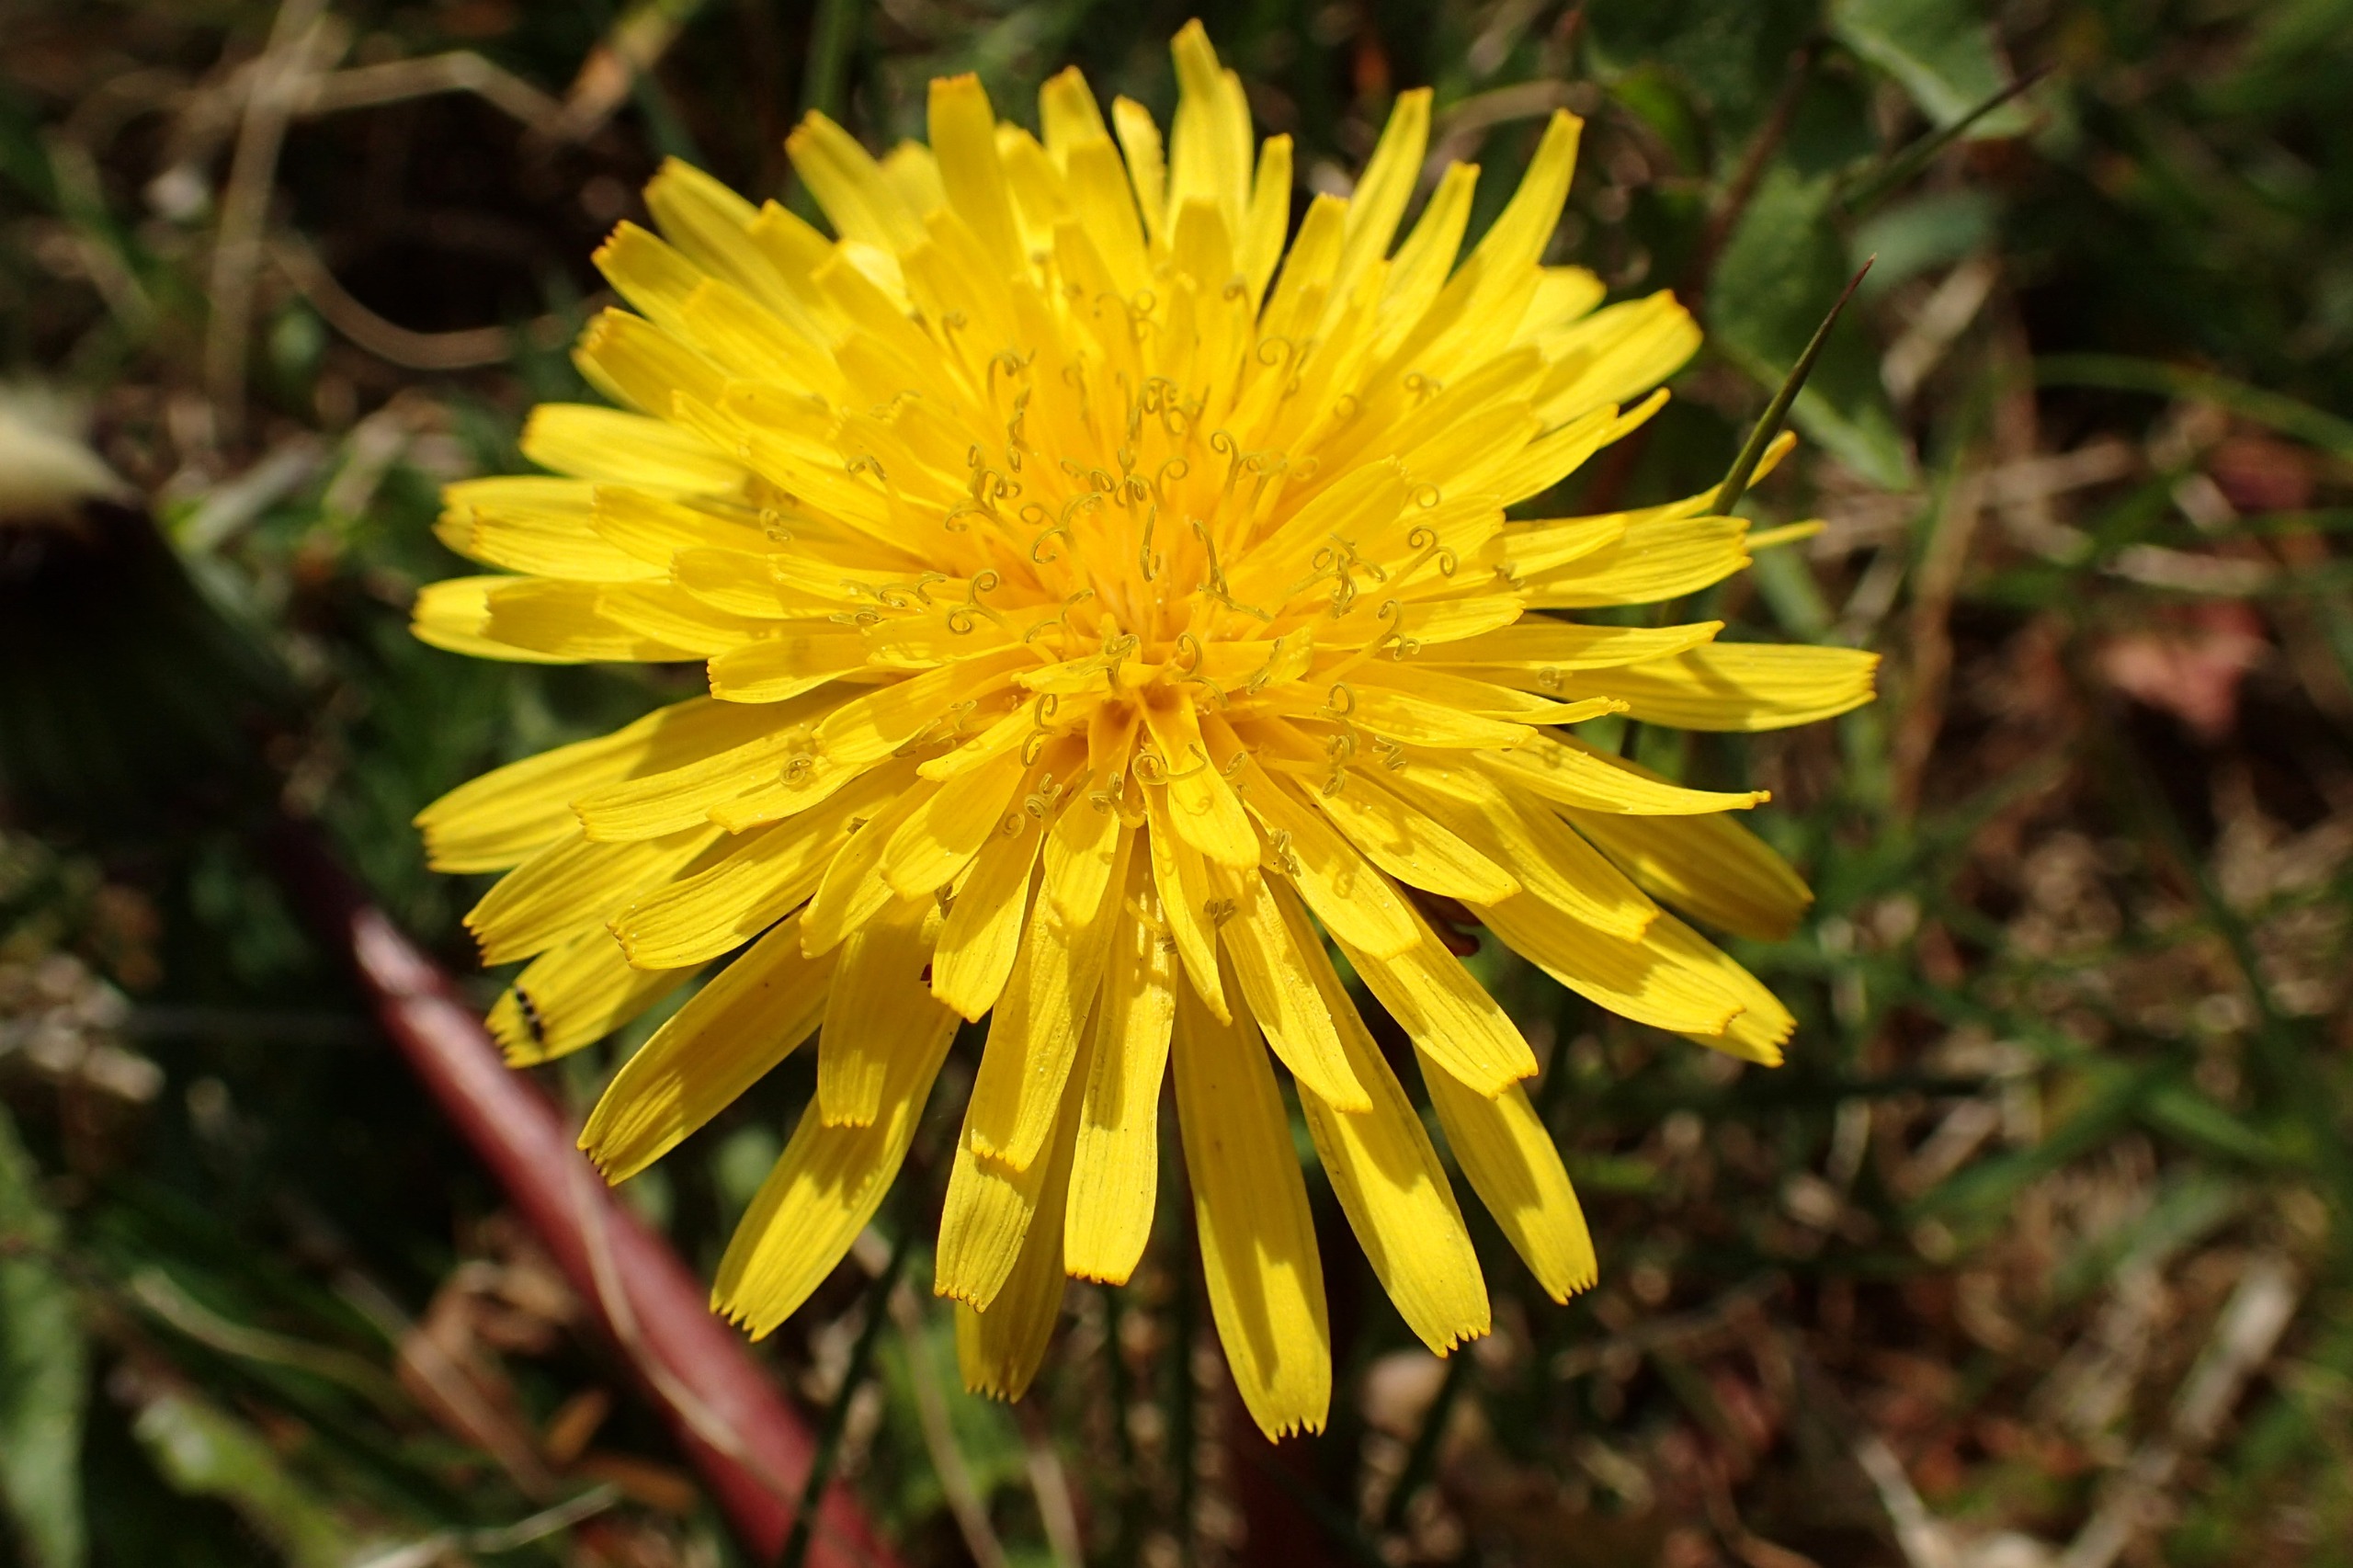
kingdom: Plantae
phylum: Tracheophyta
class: Magnoliopsida
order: Asterales
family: Asteraceae
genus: Taraxacum
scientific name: Taraxacum faeroense
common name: Kimbrisk atlantmælkebøtte
